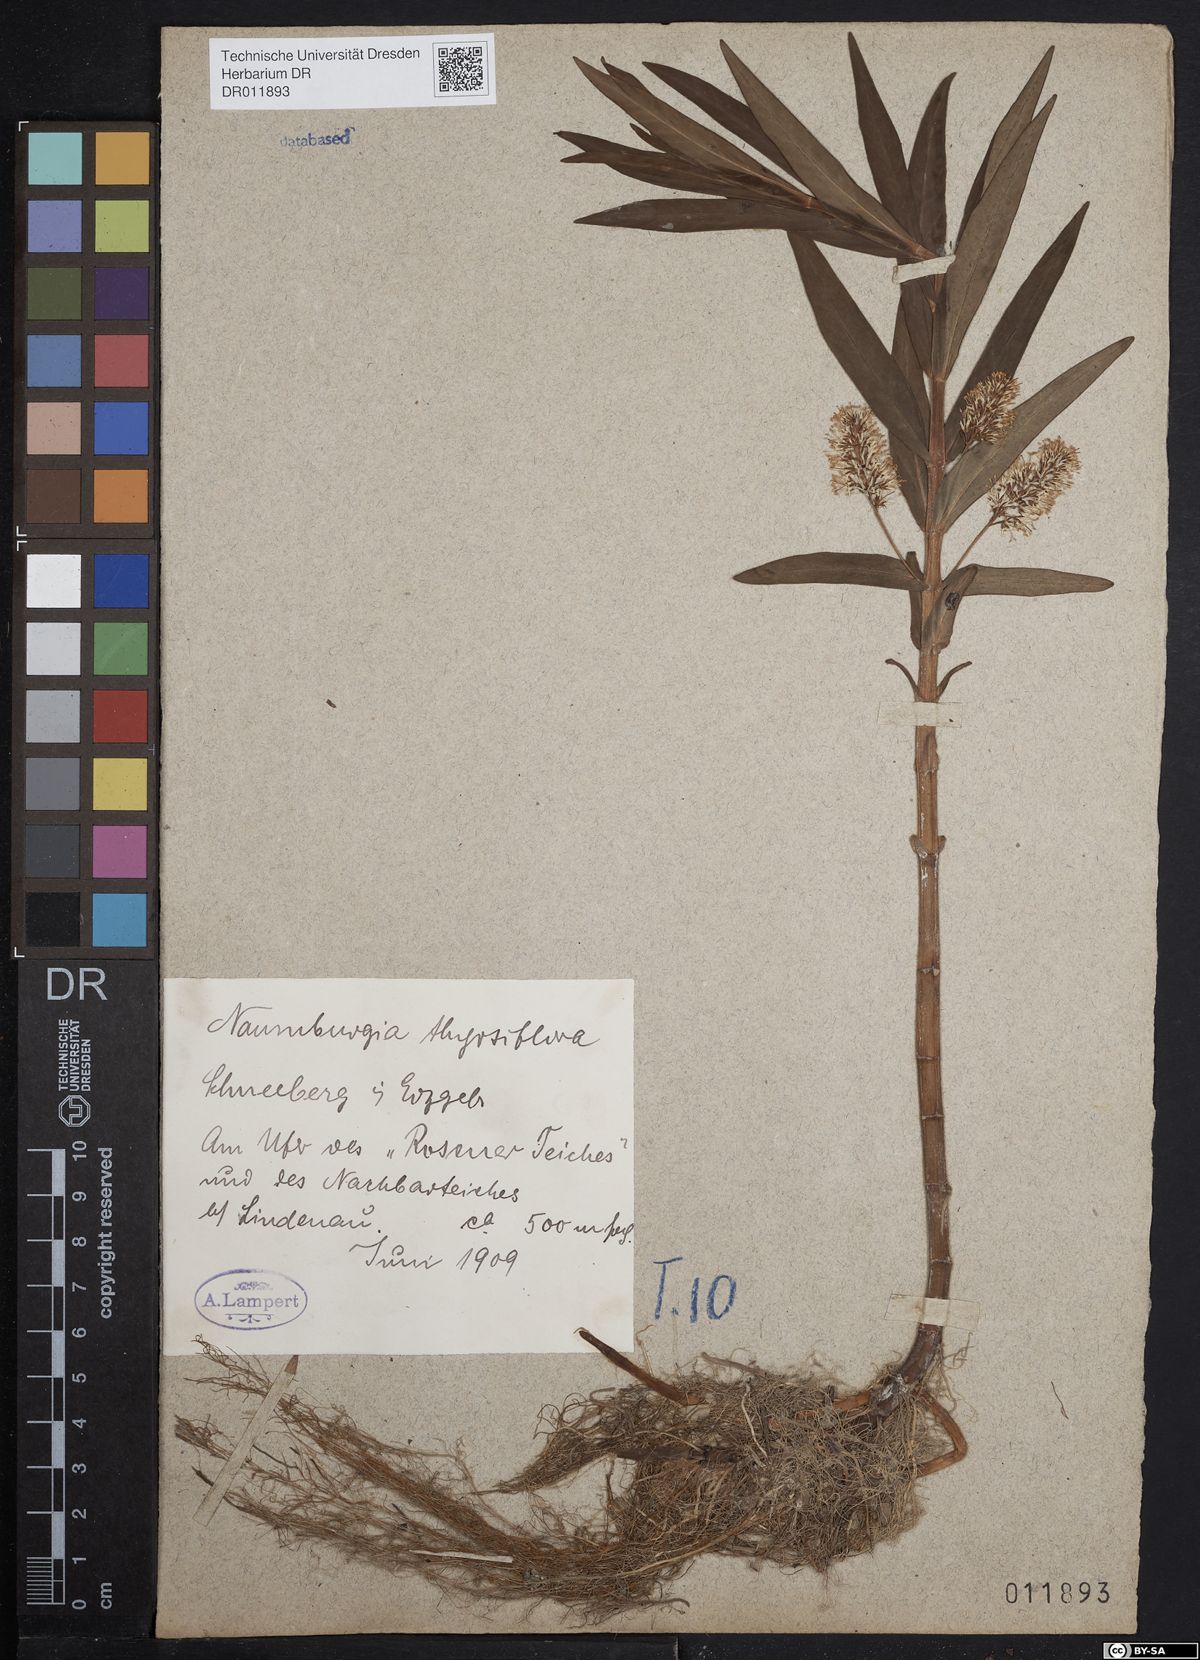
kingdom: Plantae
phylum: Tracheophyta
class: Magnoliopsida
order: Ericales
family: Primulaceae
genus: Lysimachia
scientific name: Lysimachia thyrsiflora
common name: Tufted loosestrife
